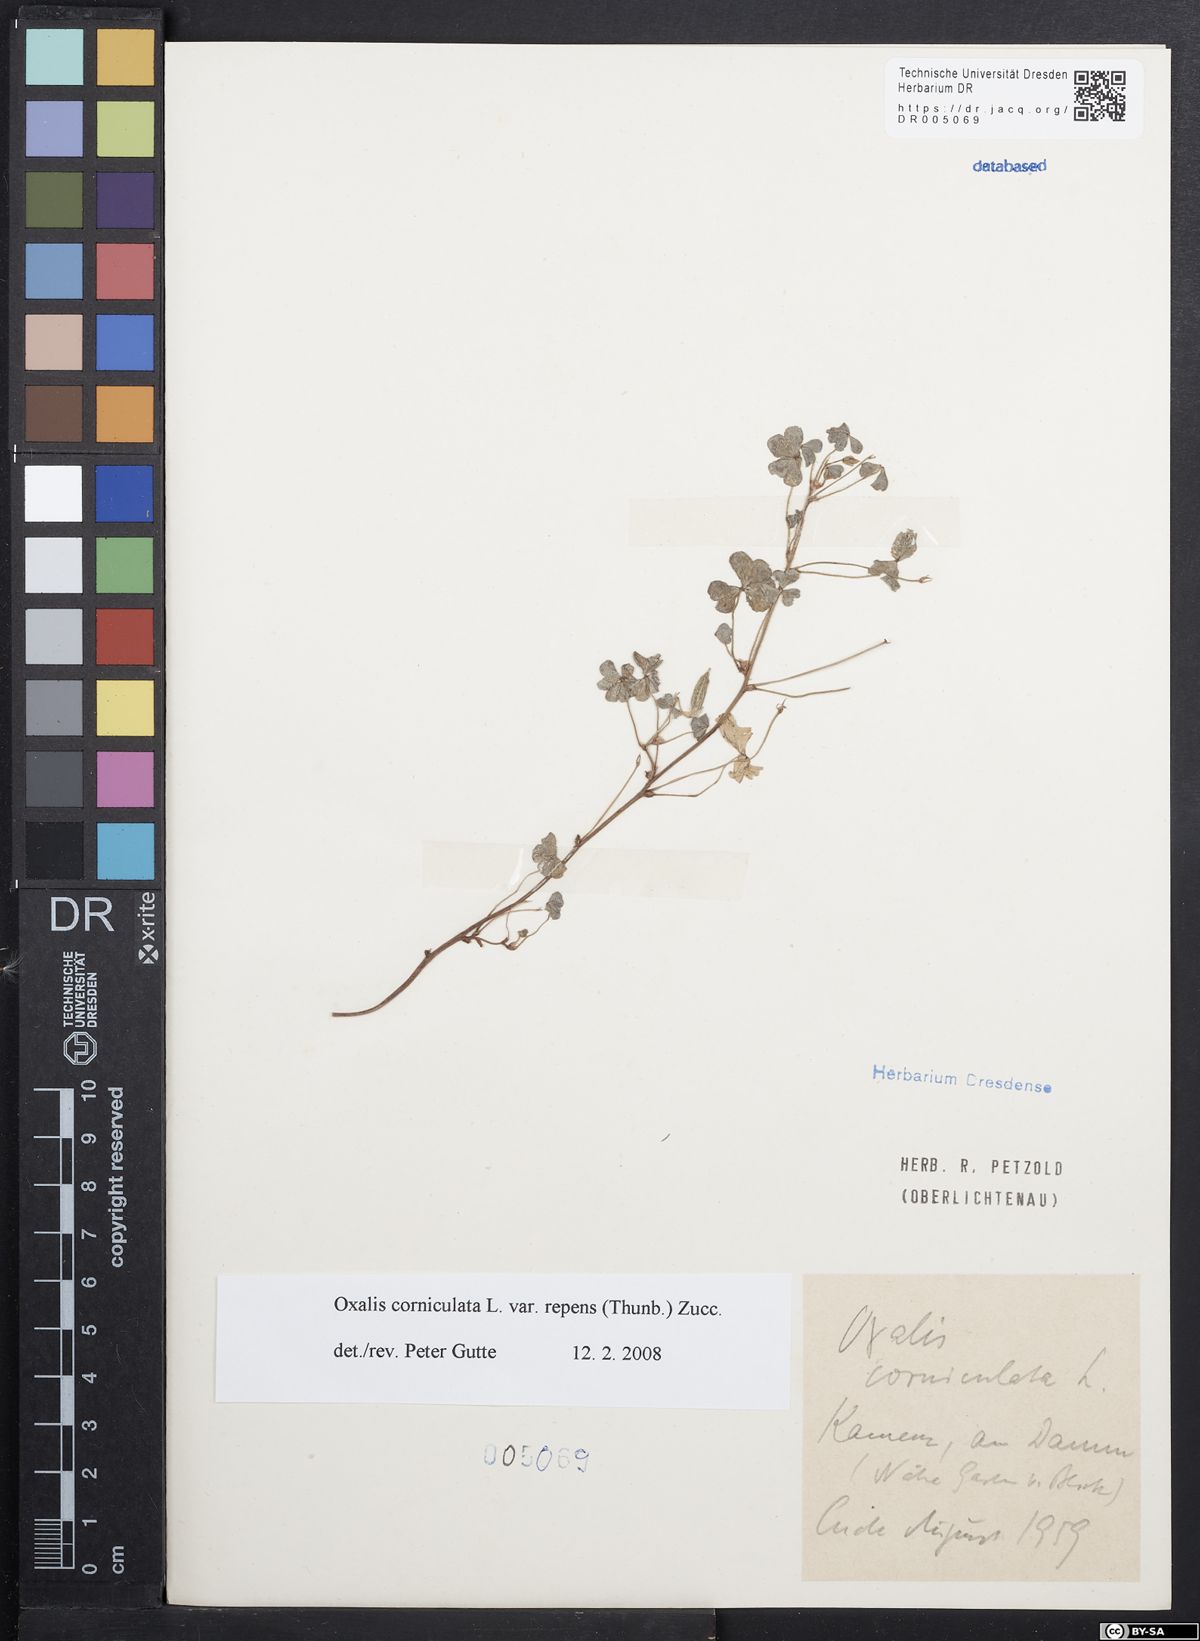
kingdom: Plantae
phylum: Tracheophyta
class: Magnoliopsida
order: Oxalidales
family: Oxalidaceae
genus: Oxalis
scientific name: Oxalis corniculata
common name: Procumbent yellow-sorrel
